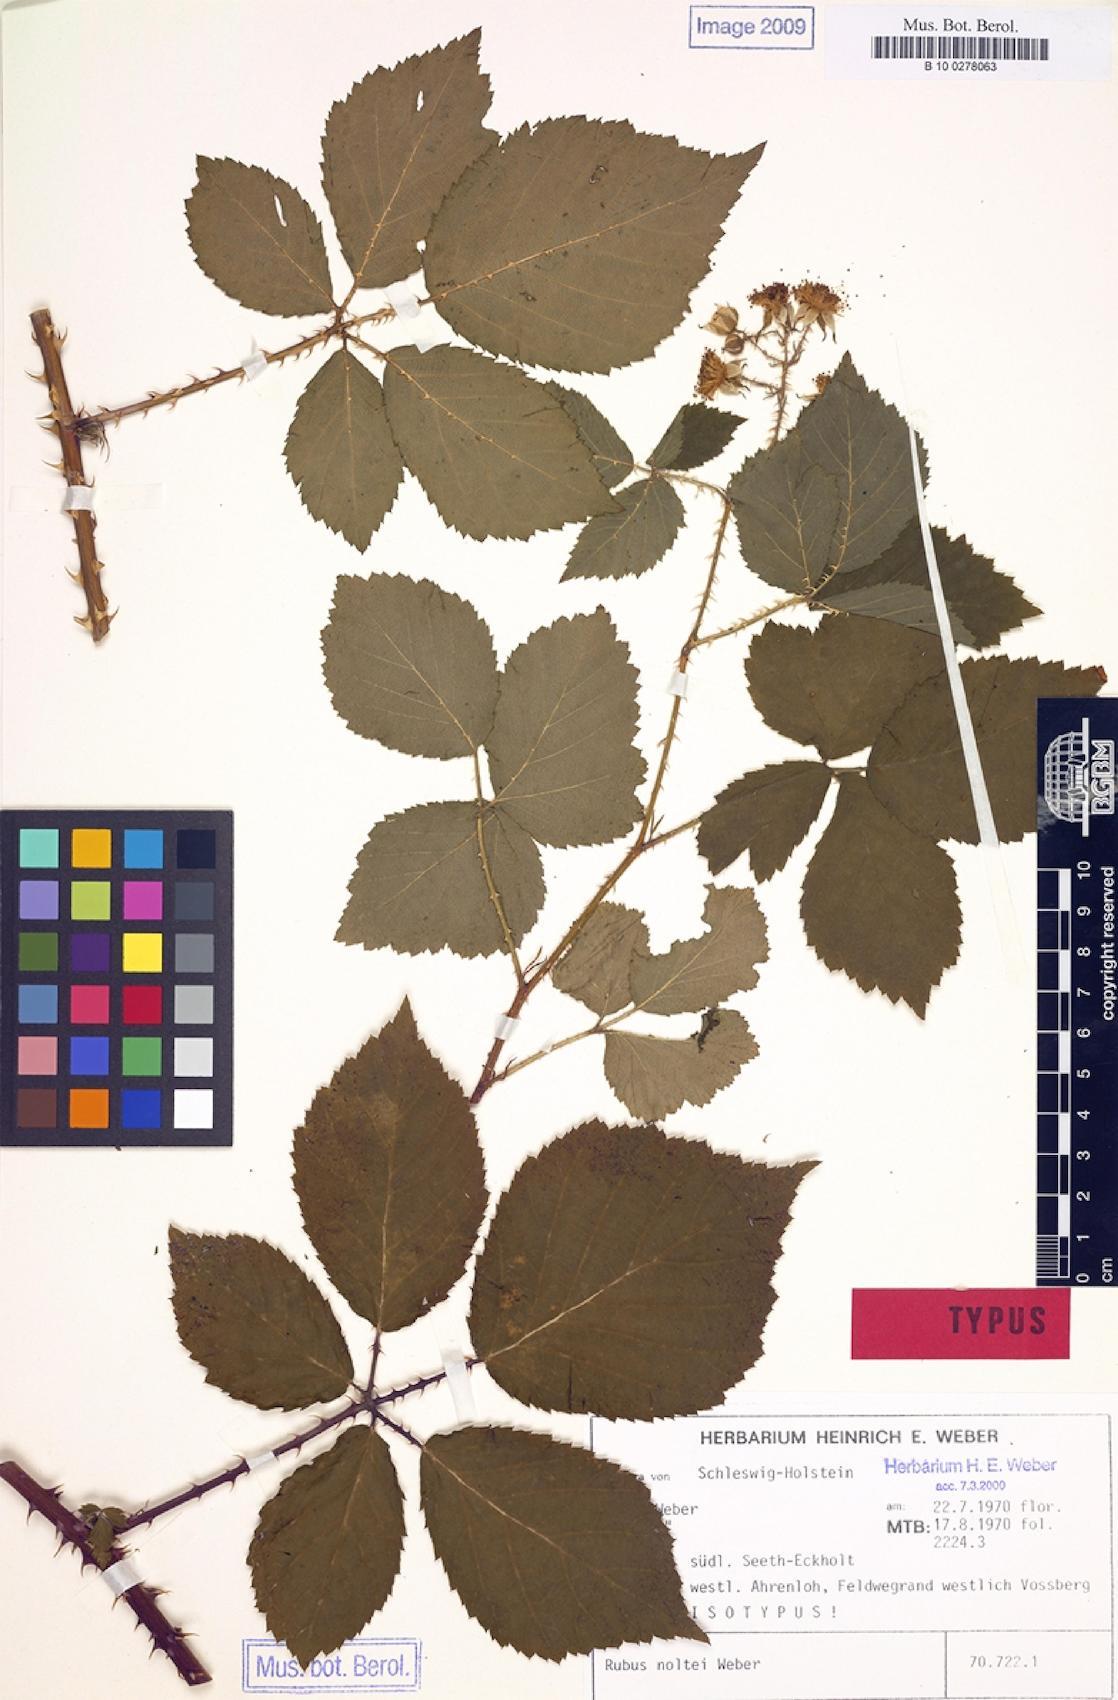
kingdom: Plantae
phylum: Tracheophyta
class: Magnoliopsida
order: Rosales
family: Rosaceae
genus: Rubus
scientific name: Rubus noltei
